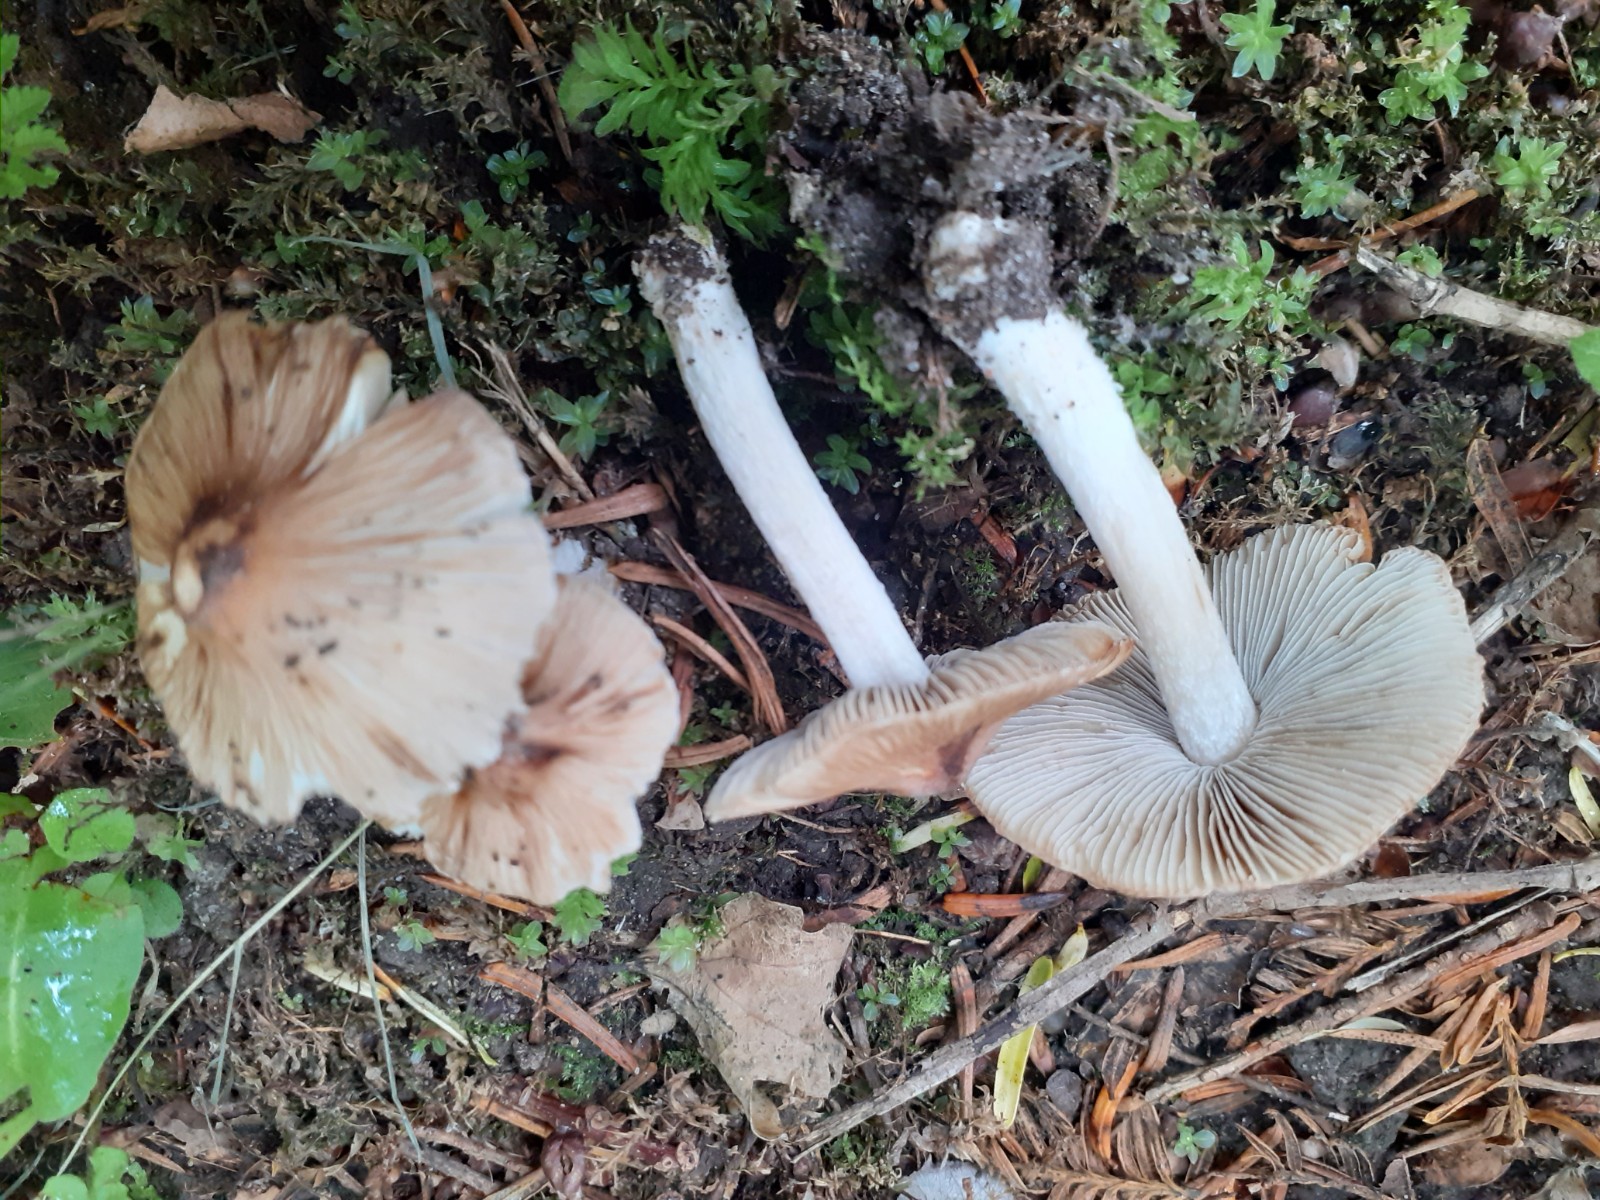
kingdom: Fungi
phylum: Basidiomycota
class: Agaricomycetes
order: Agaricales
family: Inocybaceae
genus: Pseudosperma
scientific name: Pseudosperma melliolens
